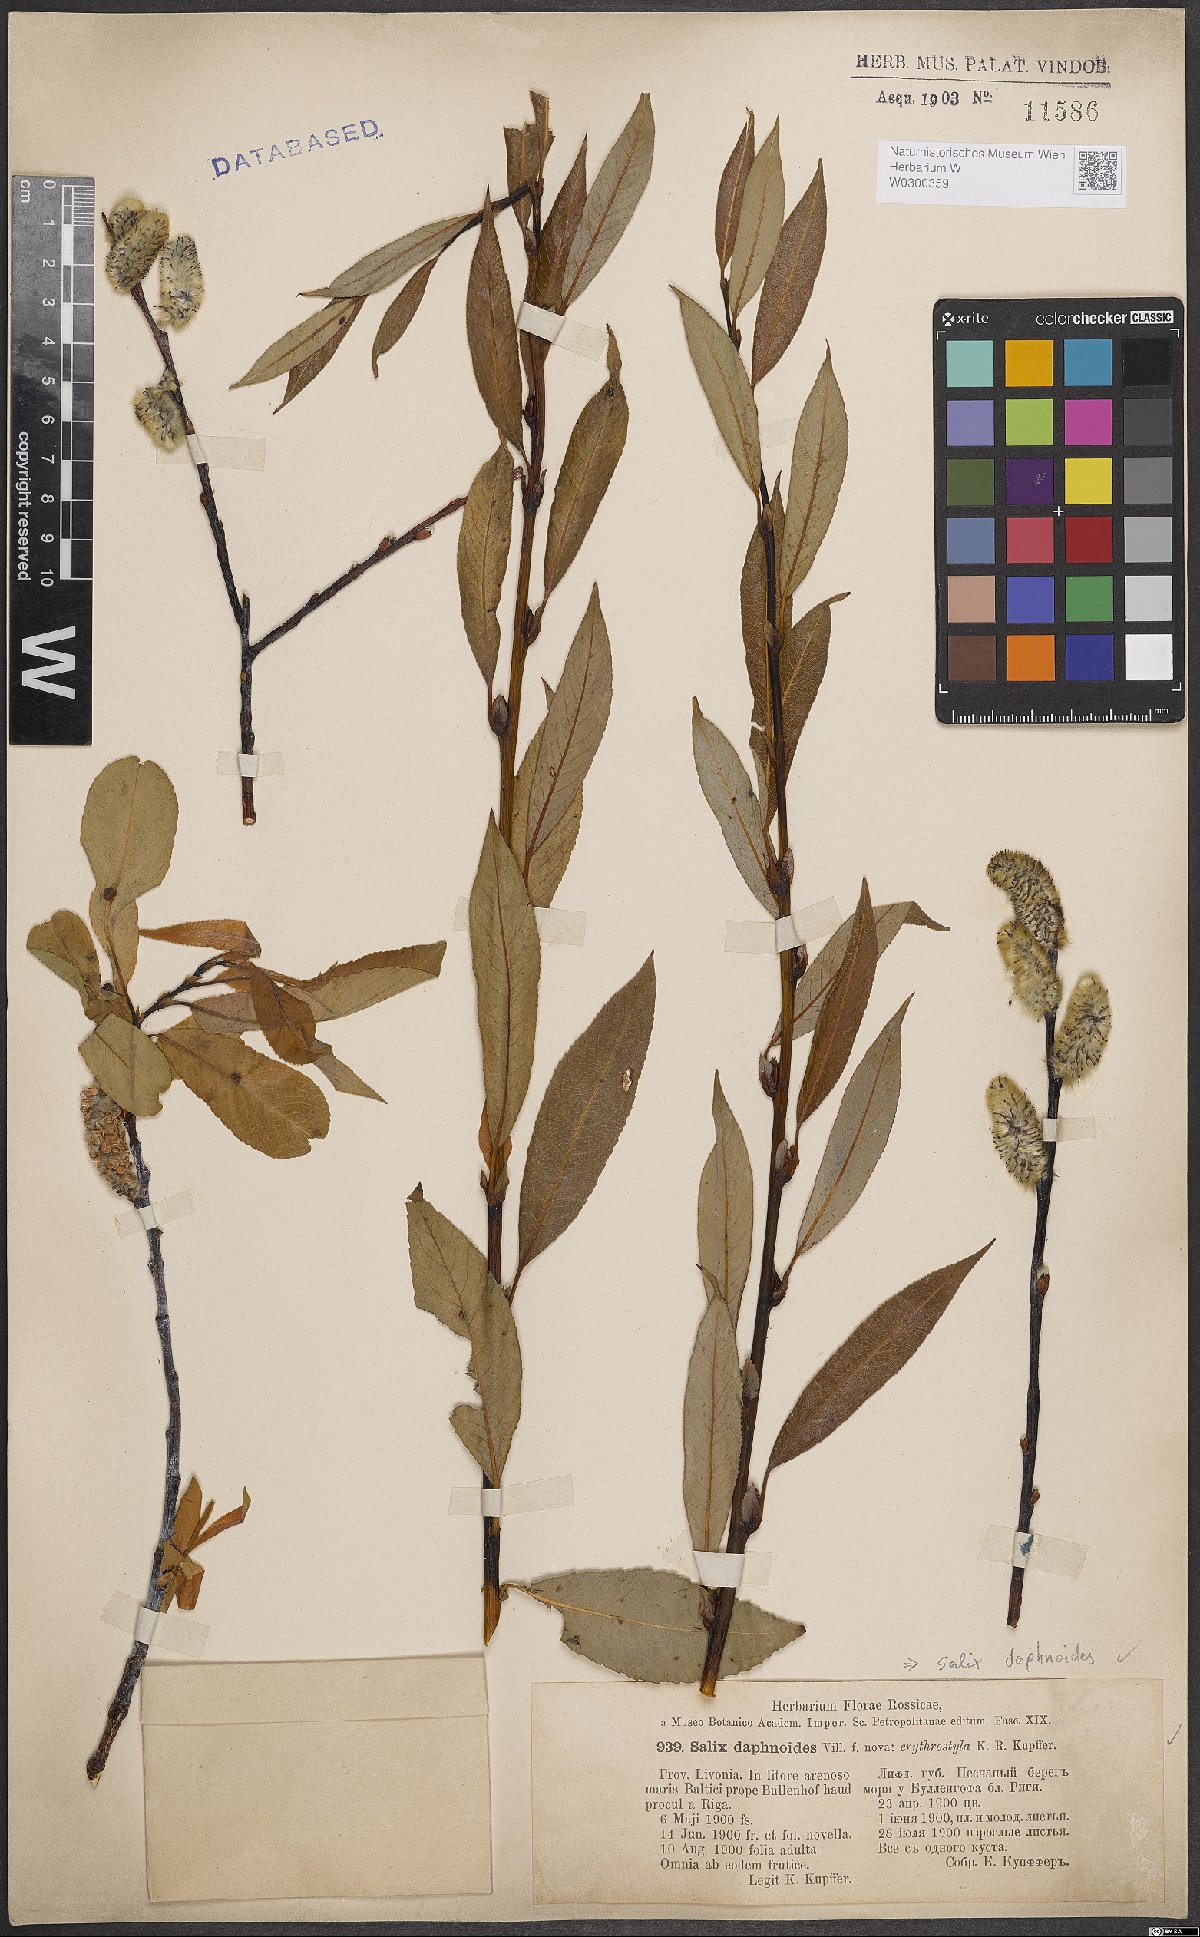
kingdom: Plantae
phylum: Tracheophyta
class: Magnoliopsida
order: Malpighiales
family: Salicaceae
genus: Salix
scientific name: Salix daphnoides
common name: European violet-willow
